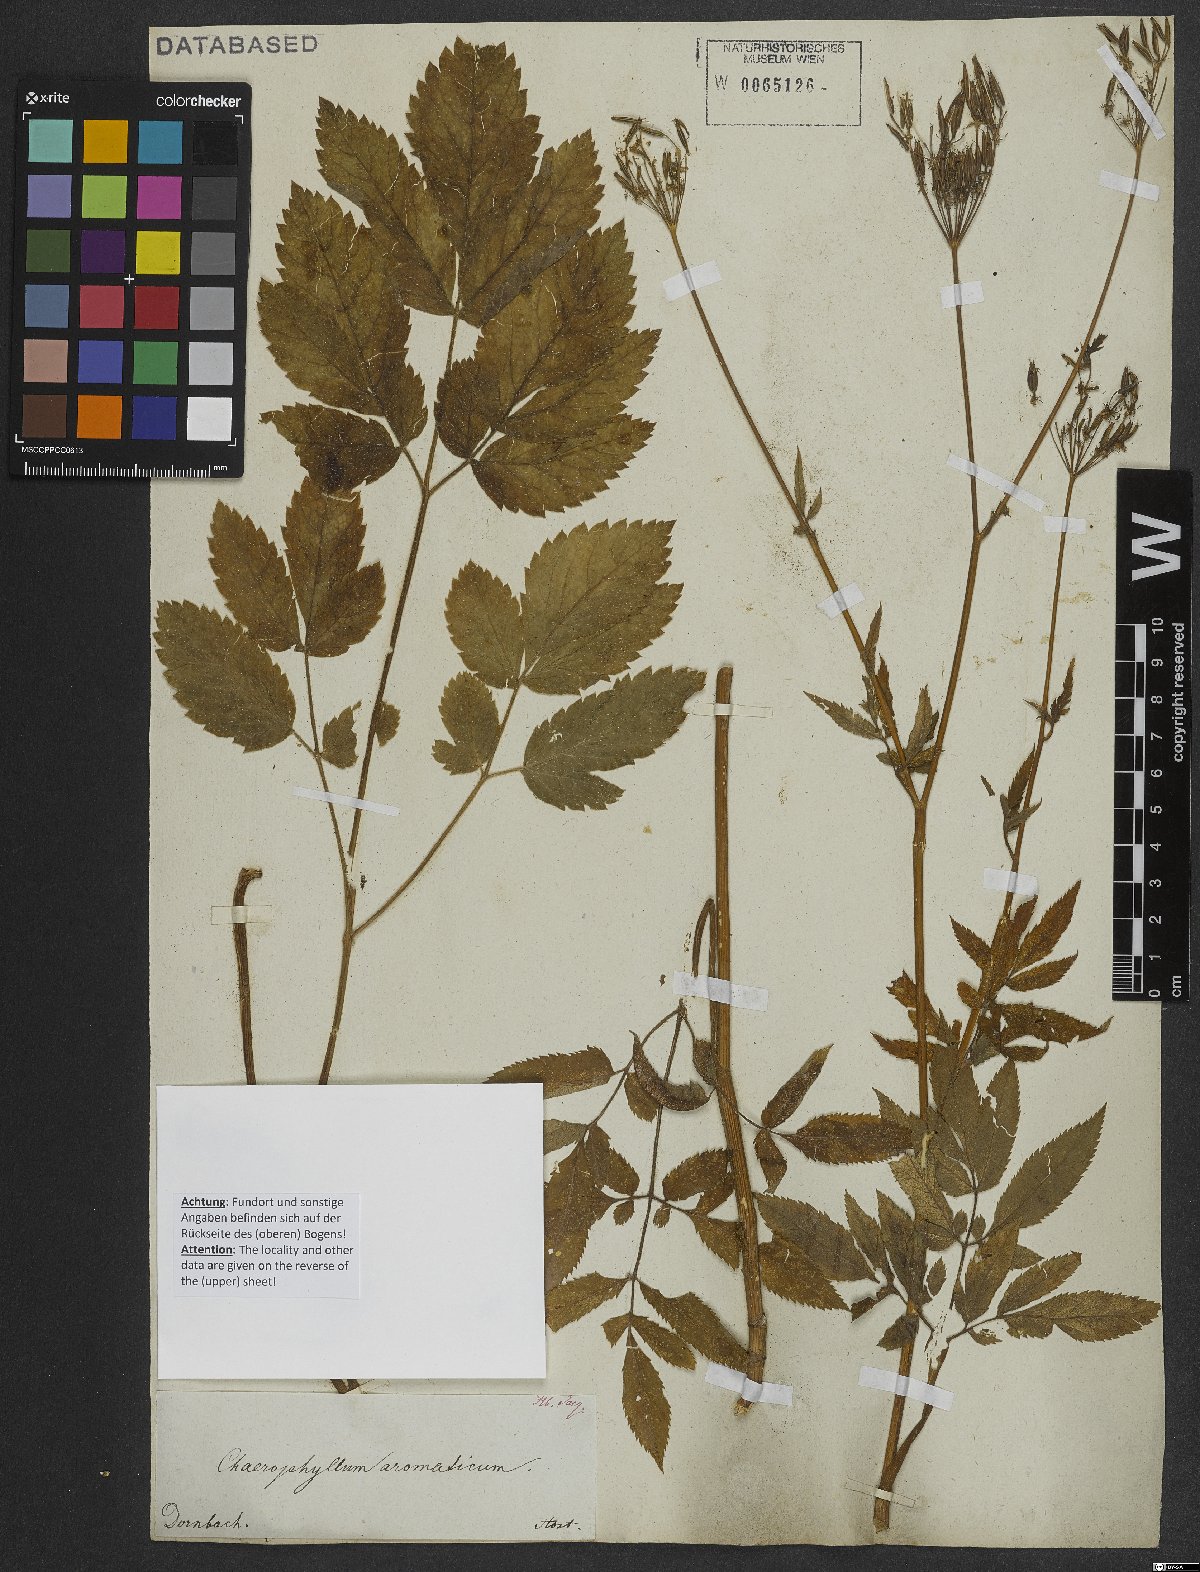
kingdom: Plantae
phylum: Tracheophyta
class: Magnoliopsida
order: Apiales
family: Apiaceae
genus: Chaerophyllum
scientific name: Chaerophyllum aromaticum
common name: Broadleaf chervil
